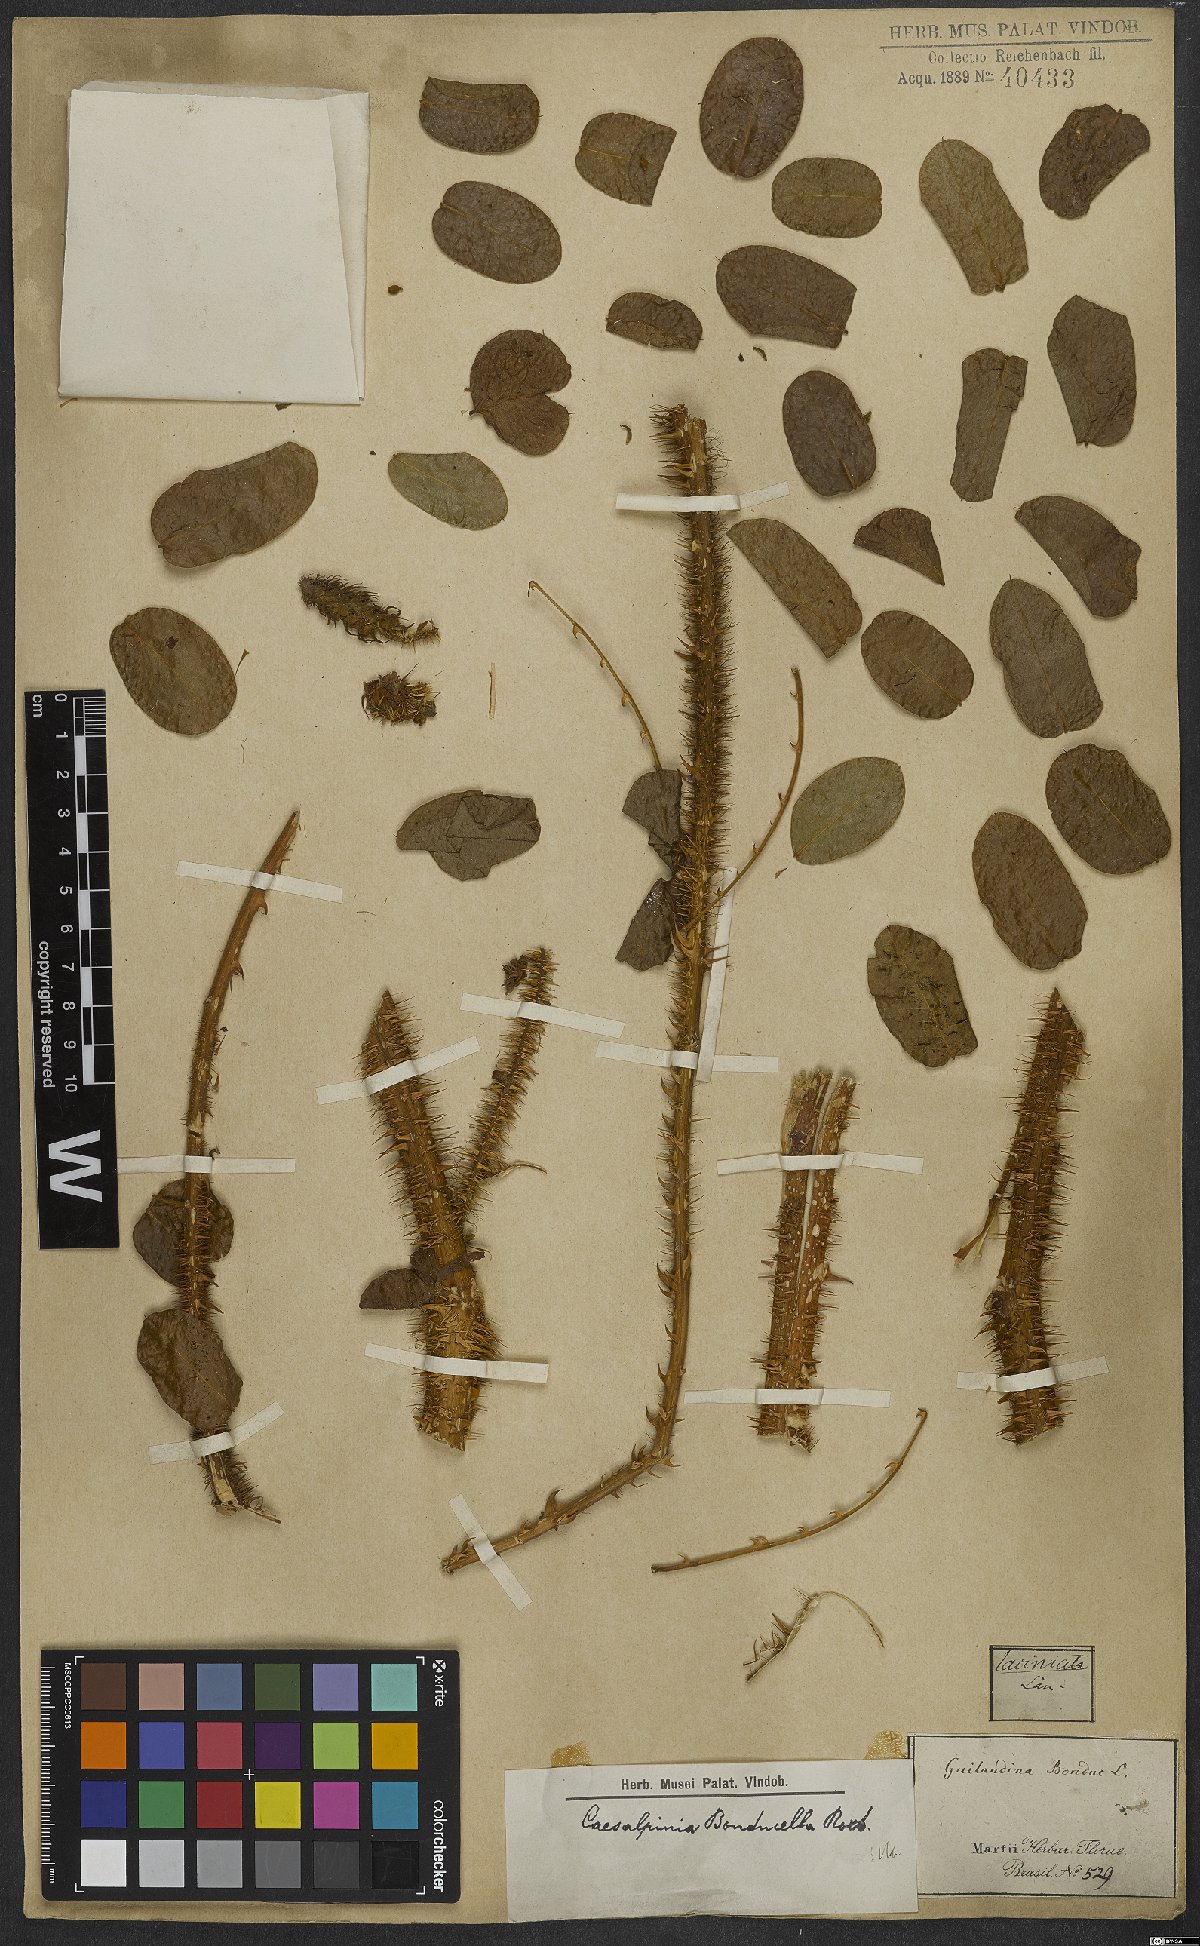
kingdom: Plantae
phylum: Tracheophyta
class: Magnoliopsida
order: Fabales
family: Fabaceae
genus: Guilandina
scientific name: Guilandina bonduc
